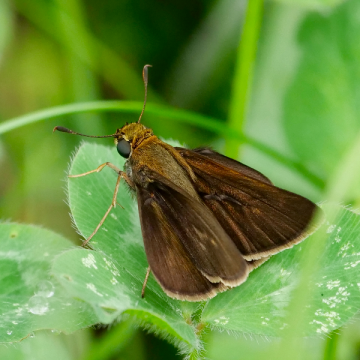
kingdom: Animalia
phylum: Arthropoda
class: Insecta
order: Lepidoptera
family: Hesperiidae
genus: Euphyes
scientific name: Euphyes vestris
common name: Dun Skipper
